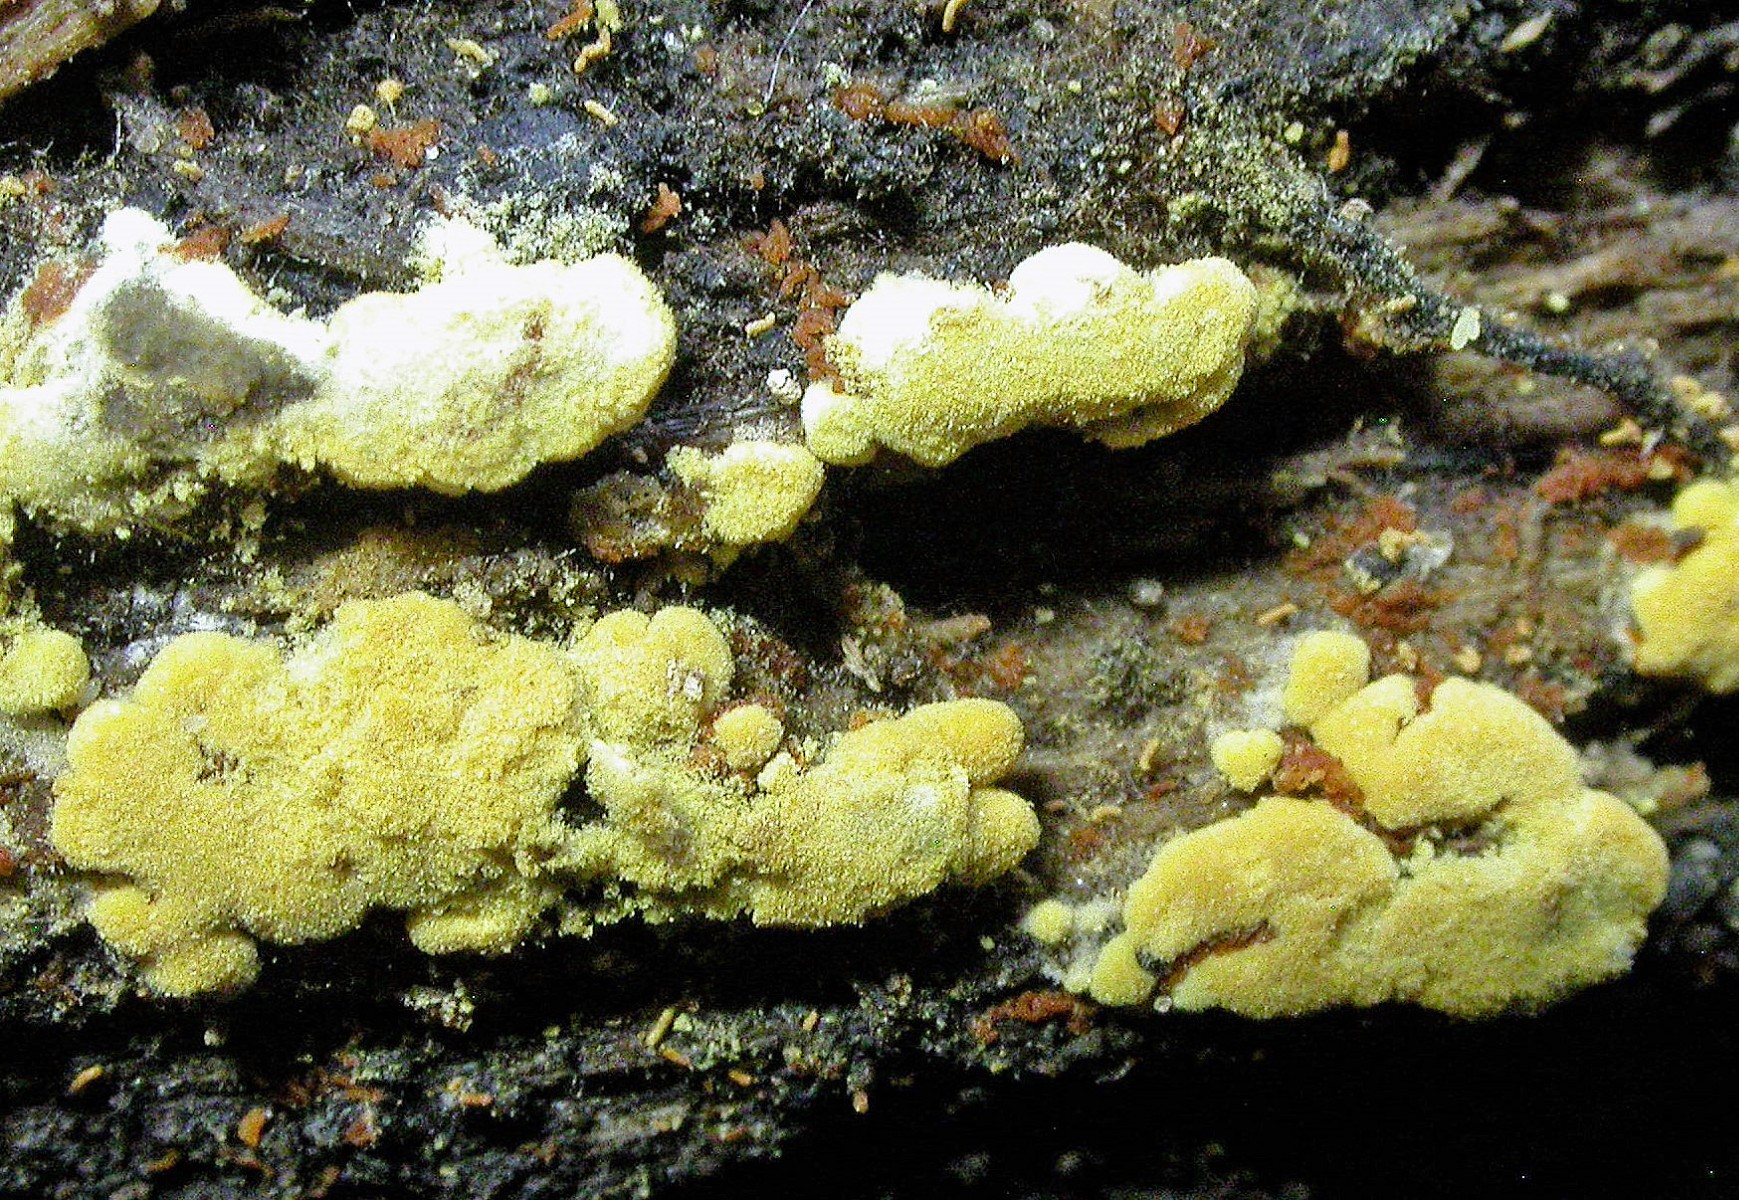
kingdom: Fungi
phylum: Basidiomycota
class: Agaricomycetes
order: Cantharellales
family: Botryobasidiaceae
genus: Botryobasidium
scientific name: Botryobasidium aureum
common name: gylden spindhinde
